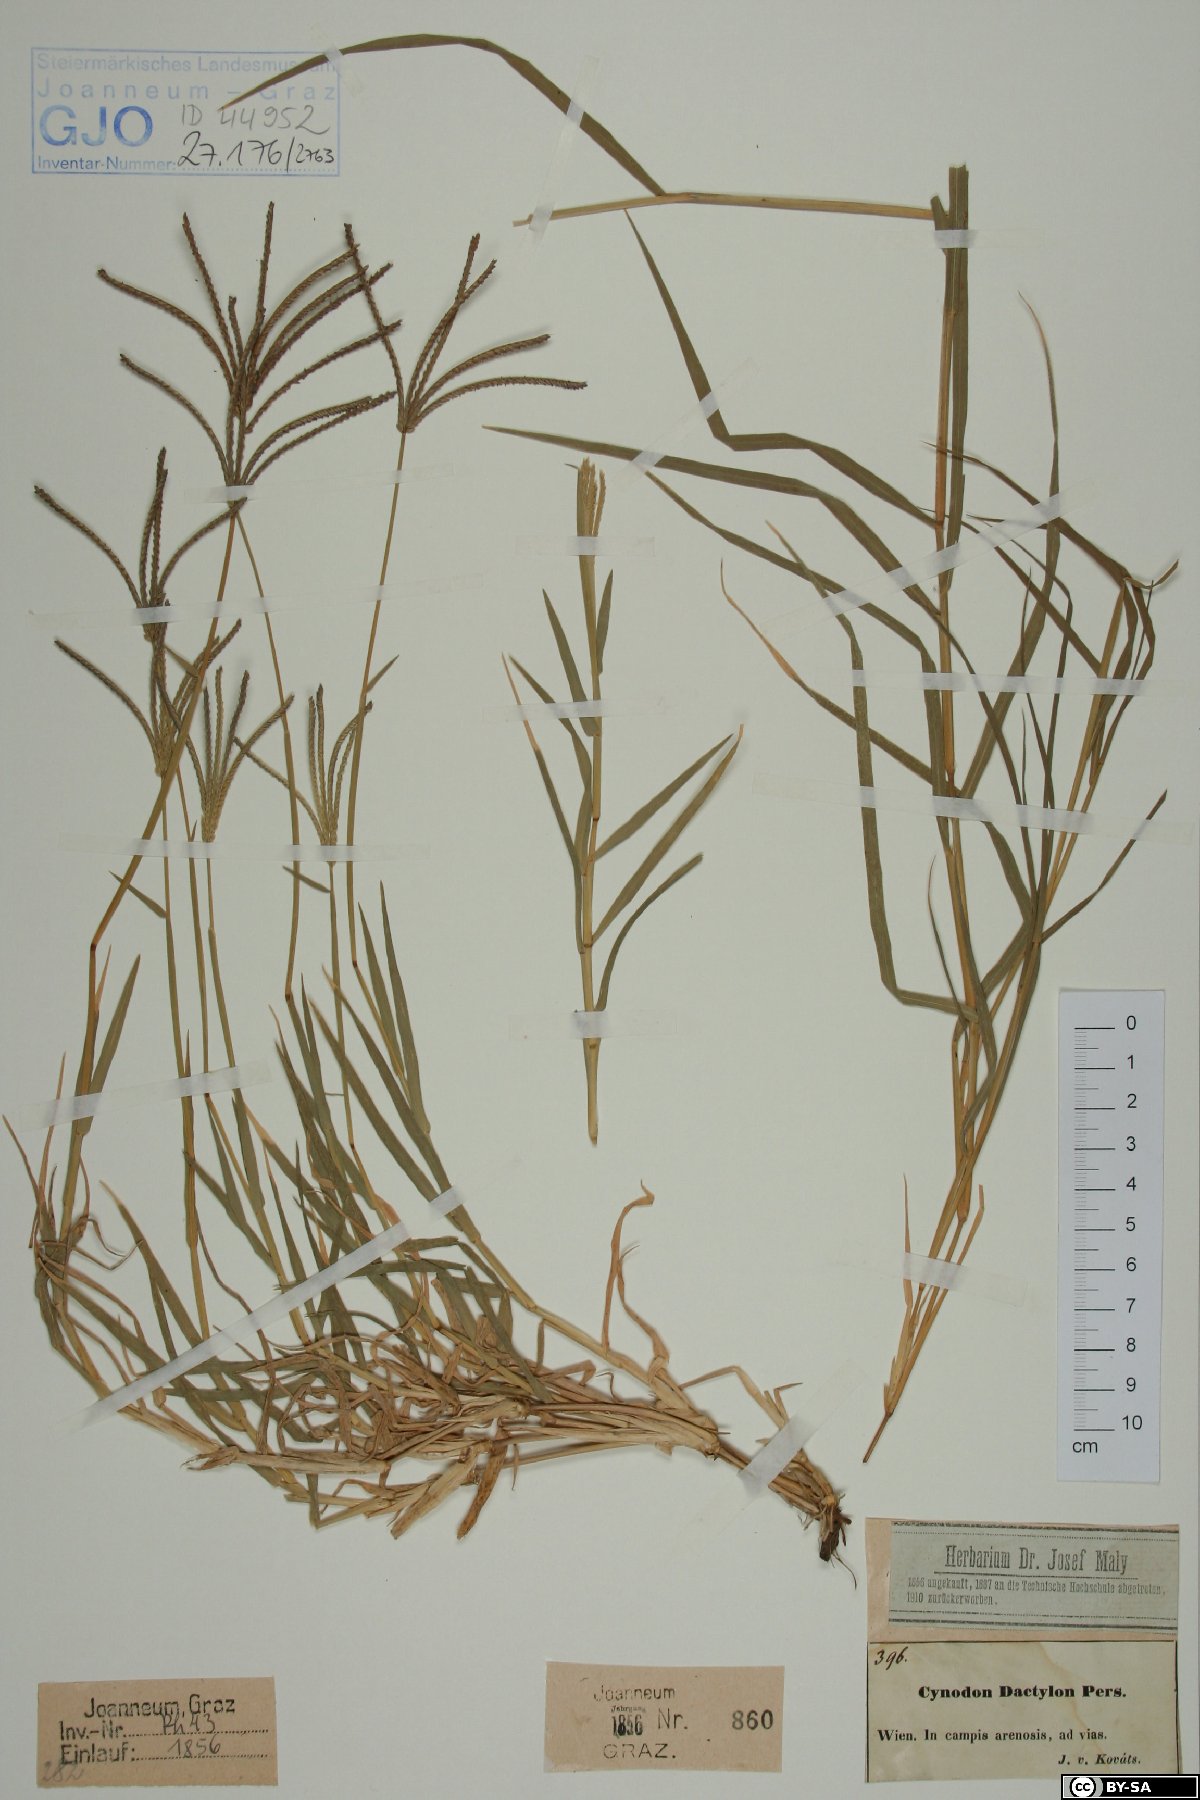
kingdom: Plantae
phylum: Tracheophyta
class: Liliopsida
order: Poales
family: Poaceae
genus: Cynodon
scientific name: Cynodon dactylon
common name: Bermuda grass
